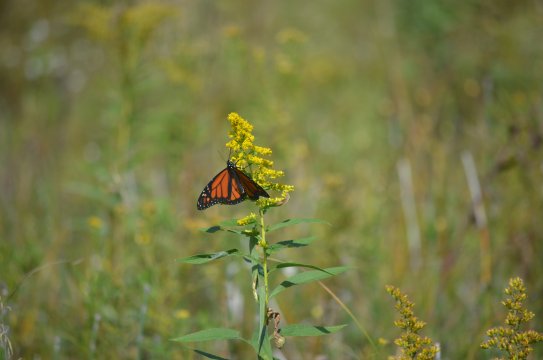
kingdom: Animalia
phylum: Arthropoda
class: Insecta
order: Lepidoptera
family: Nymphalidae
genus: Danaus
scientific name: Danaus plexippus
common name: Monarch
